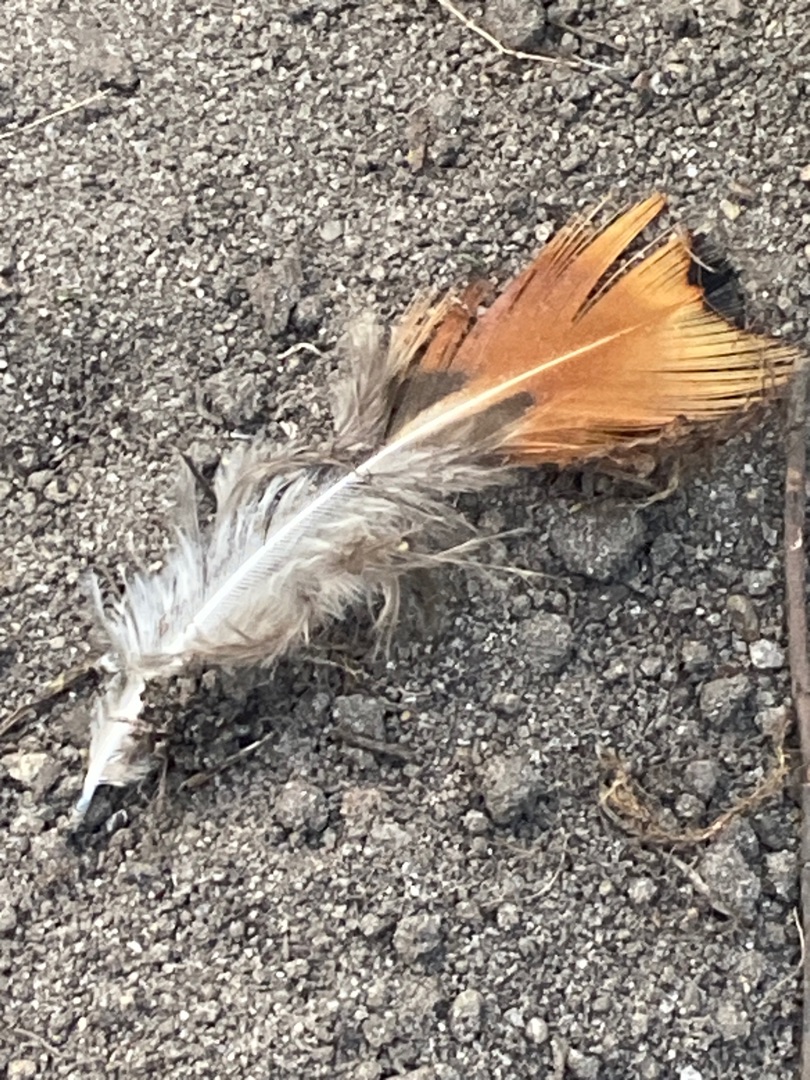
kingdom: Animalia
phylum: Chordata
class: Aves
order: Galliformes
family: Phasianidae
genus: Phasianus
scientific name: Phasianus colchicus
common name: Fasan
